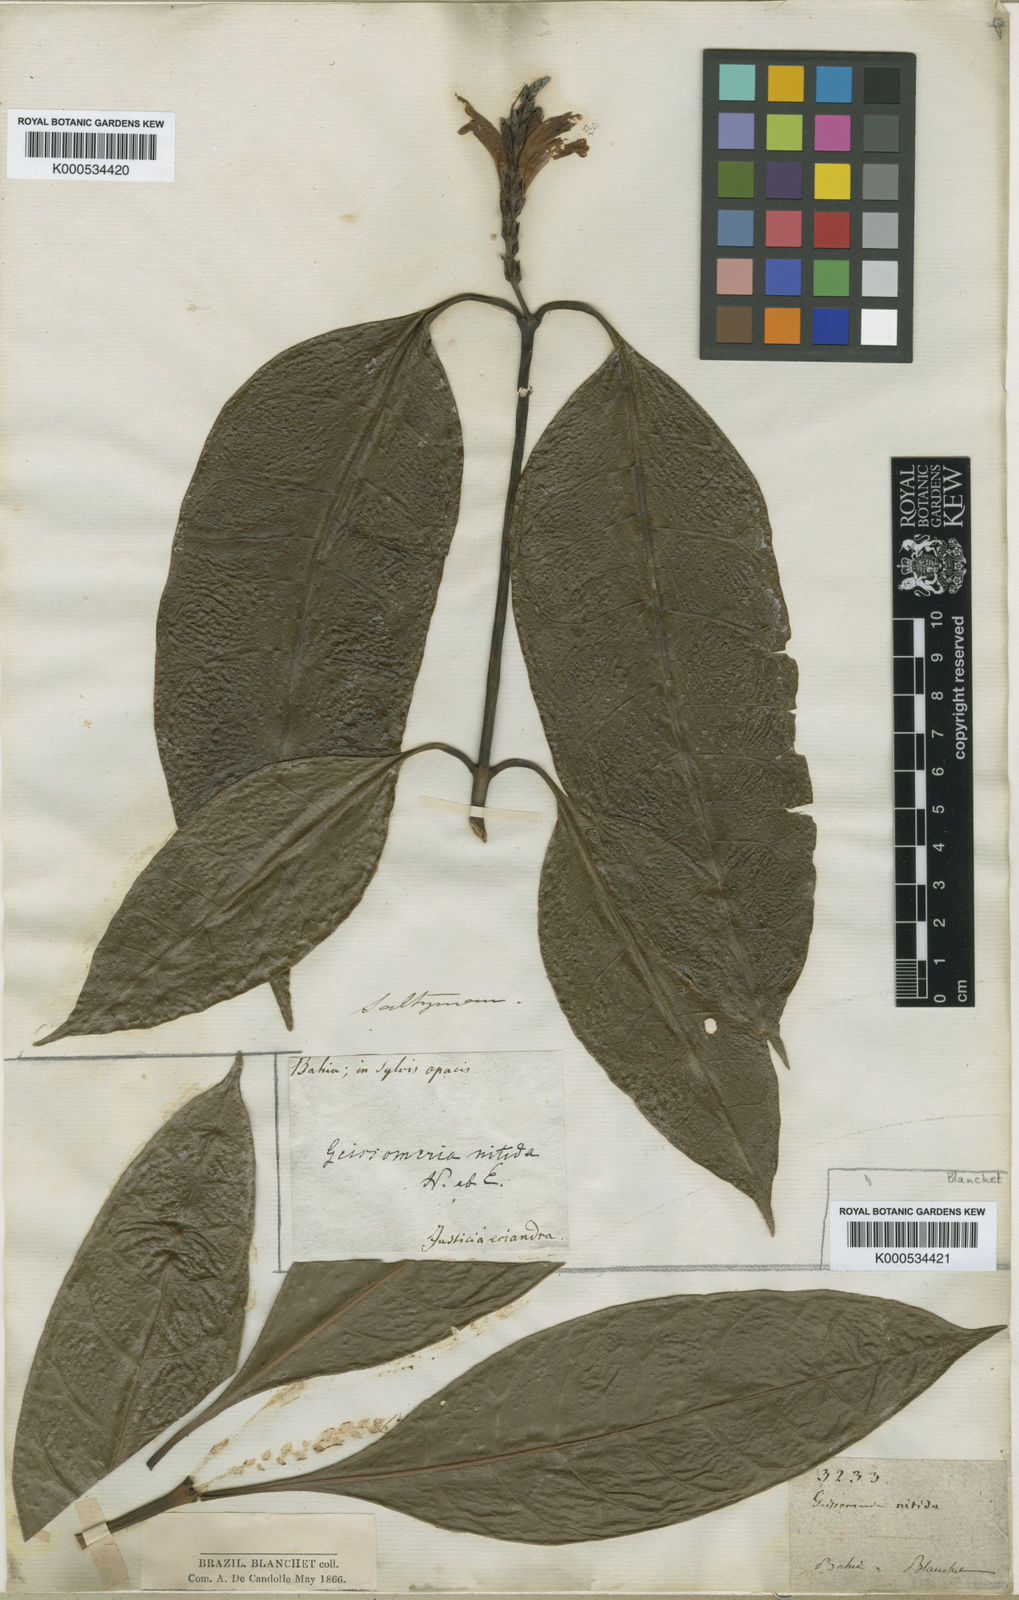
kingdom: Plantae
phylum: Tracheophyta
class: Magnoliopsida
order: Lamiales
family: Acanthaceae
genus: Aphelandra
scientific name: Aphelandra nitida
